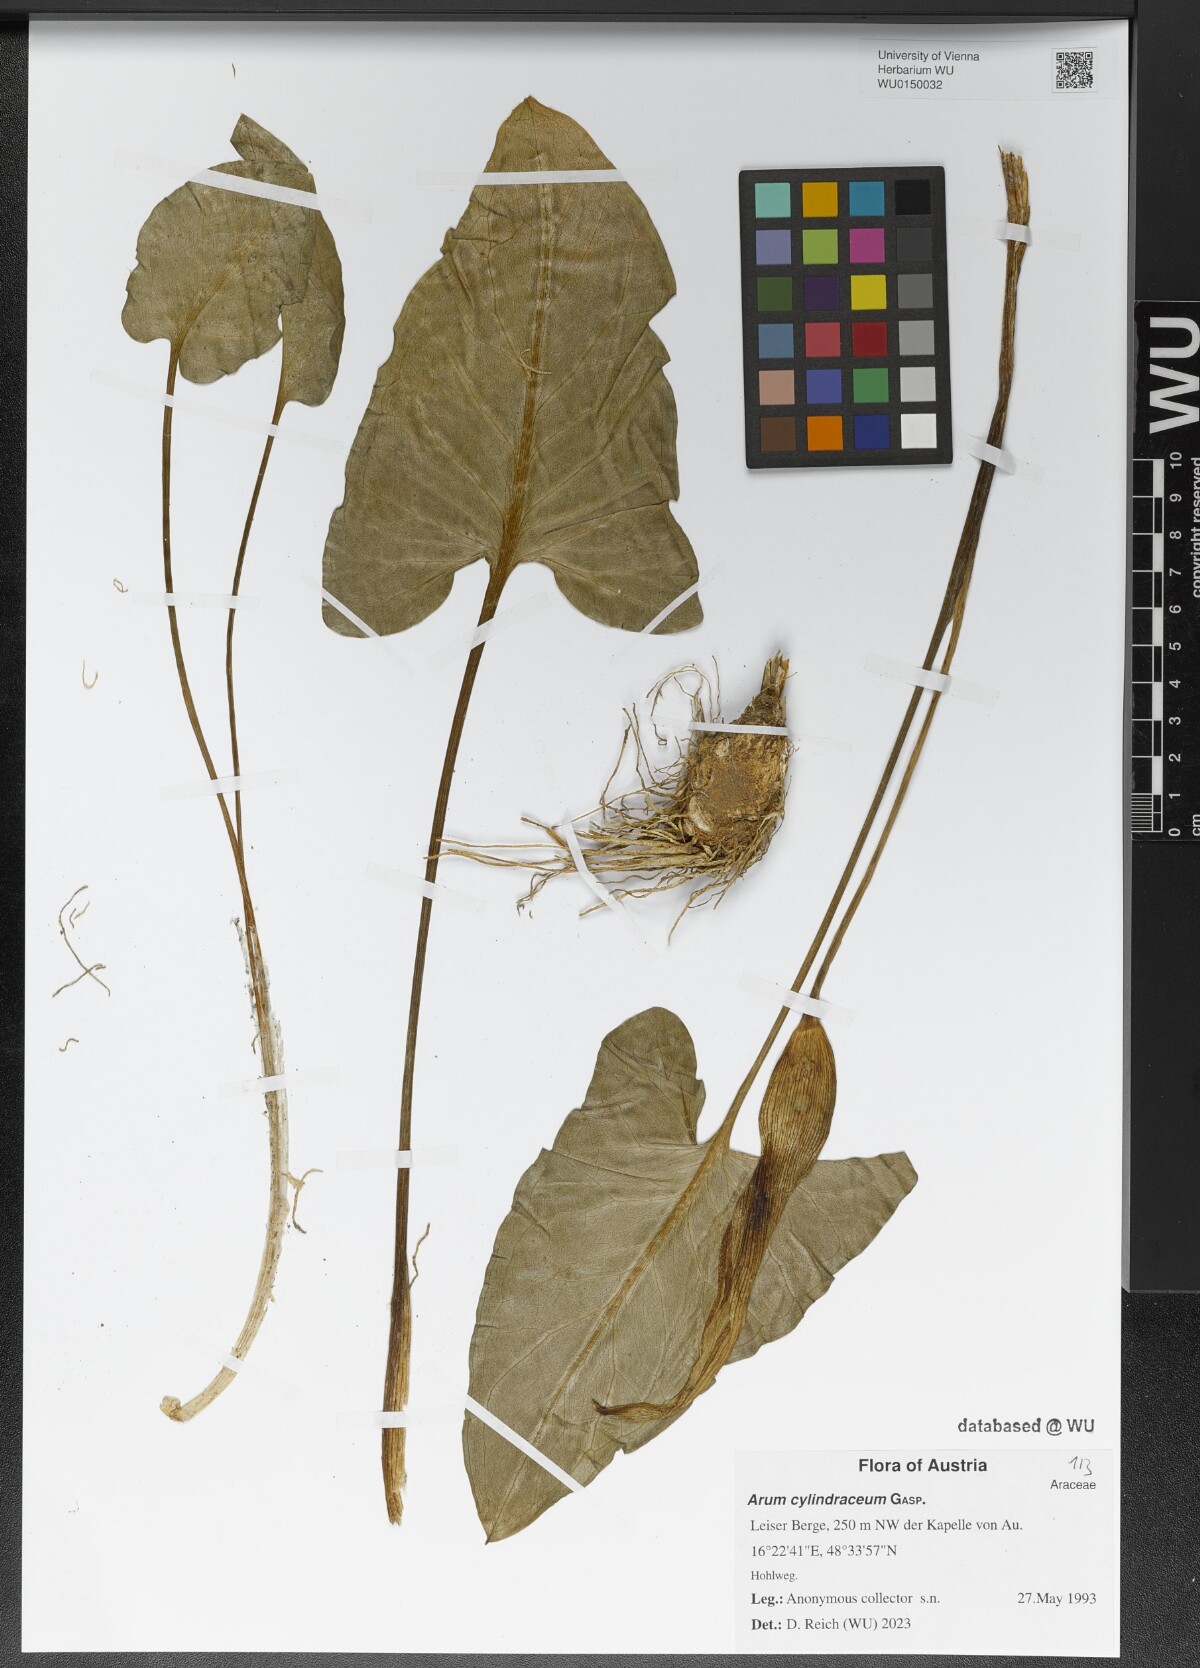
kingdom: Plantae
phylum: Tracheophyta
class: Liliopsida
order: Alismatales
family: Araceae
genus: Arum
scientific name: Arum cylindraceum
